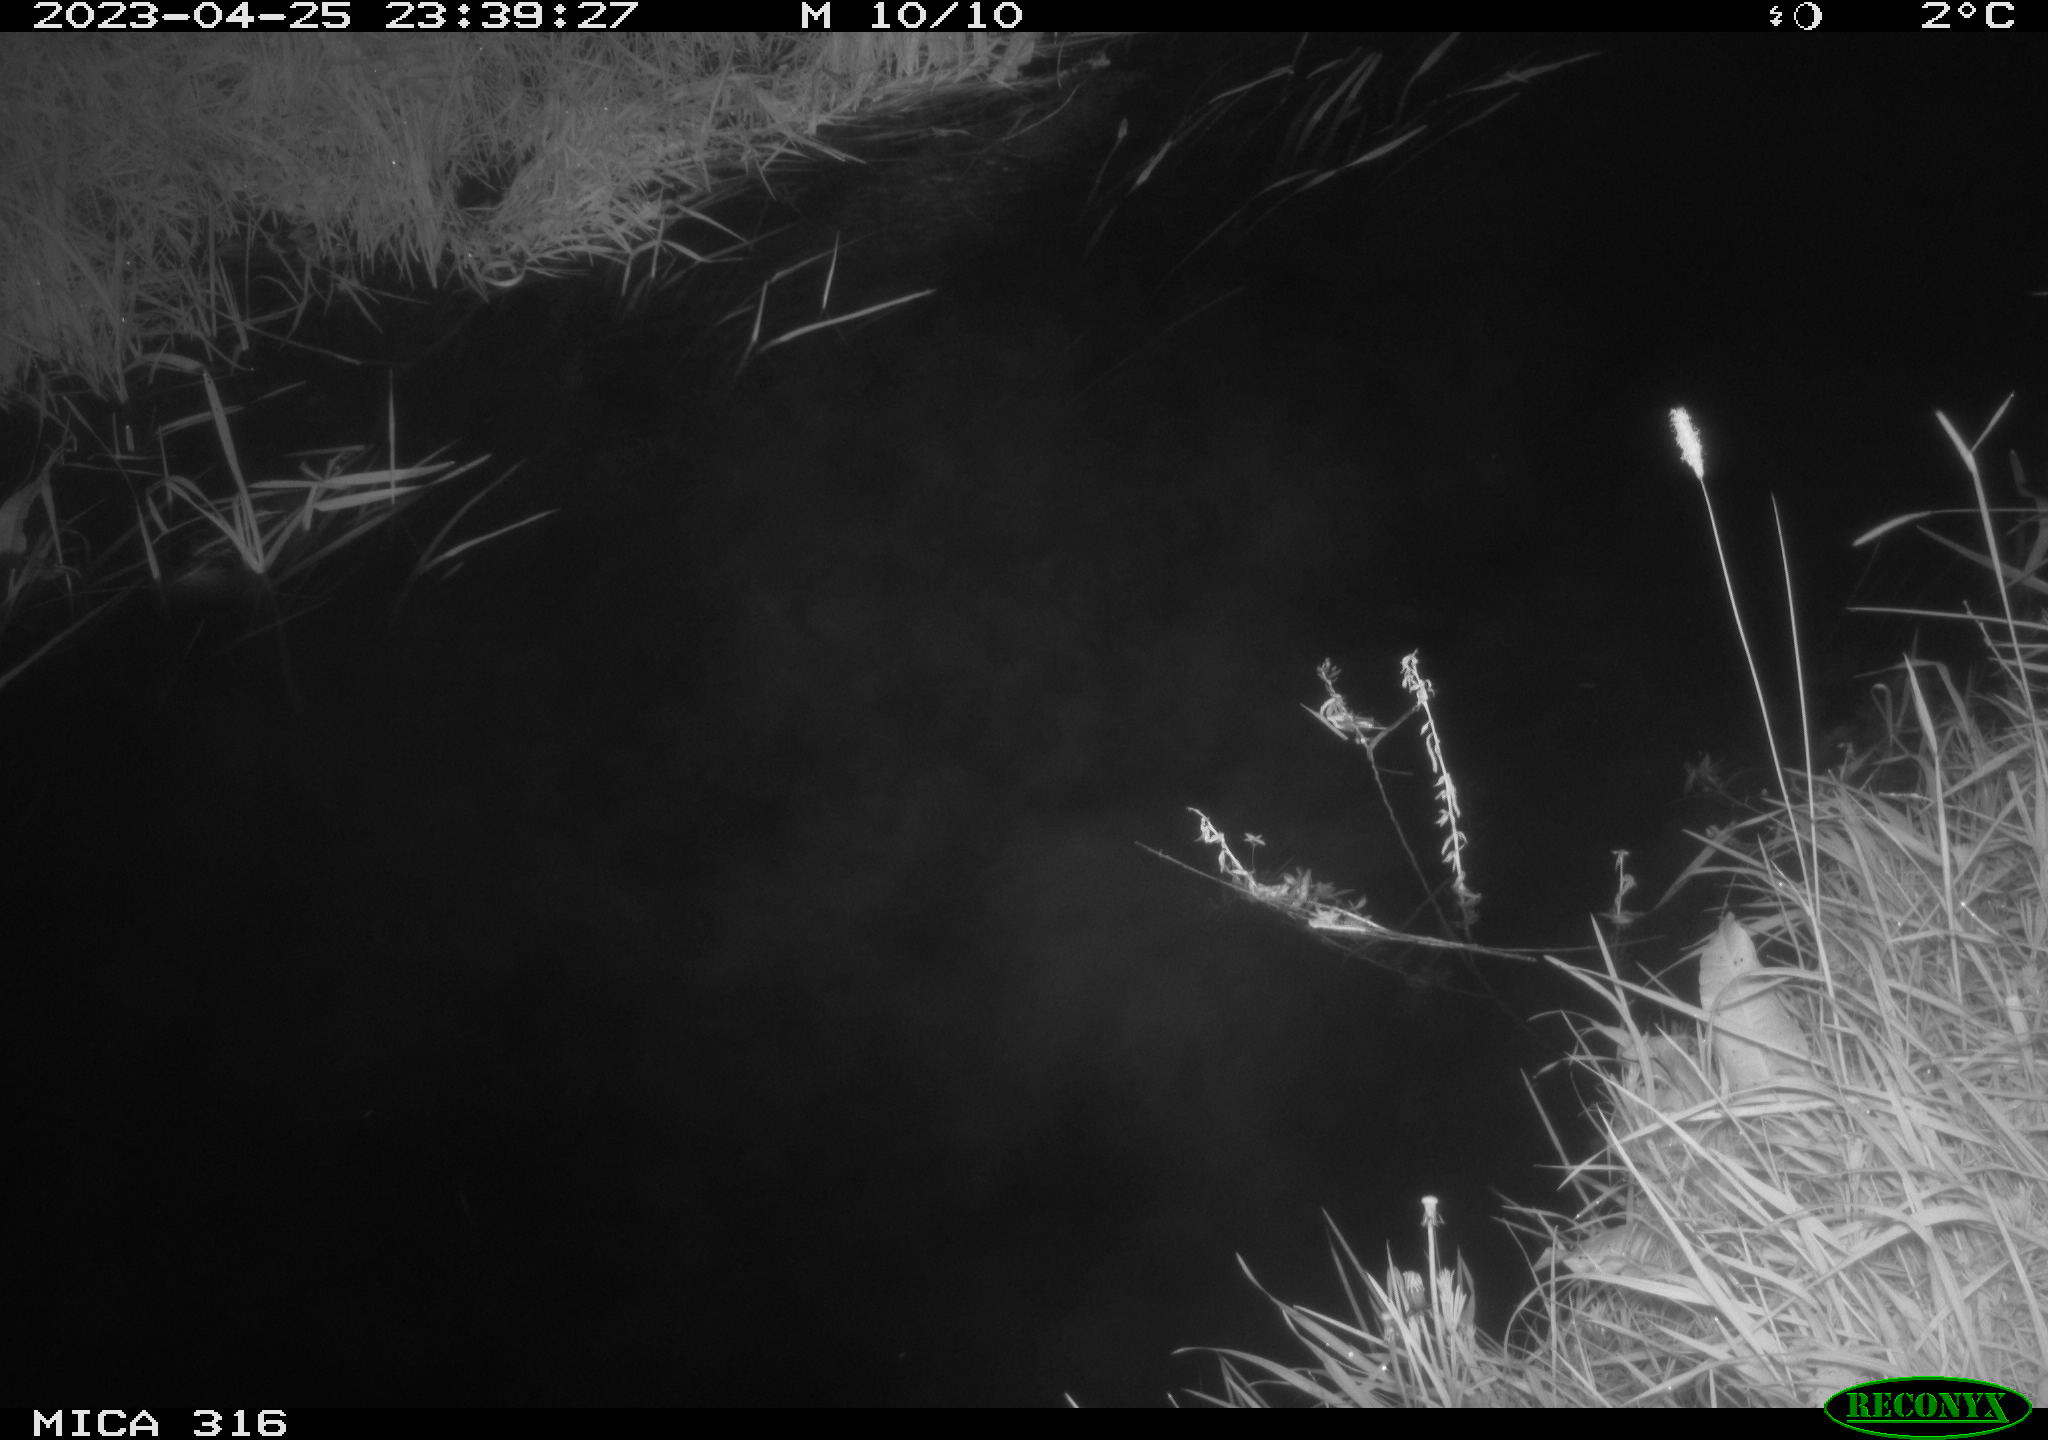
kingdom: Animalia
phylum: Chordata
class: Aves
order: Anseriformes
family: Anatidae
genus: Anas
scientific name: Anas
